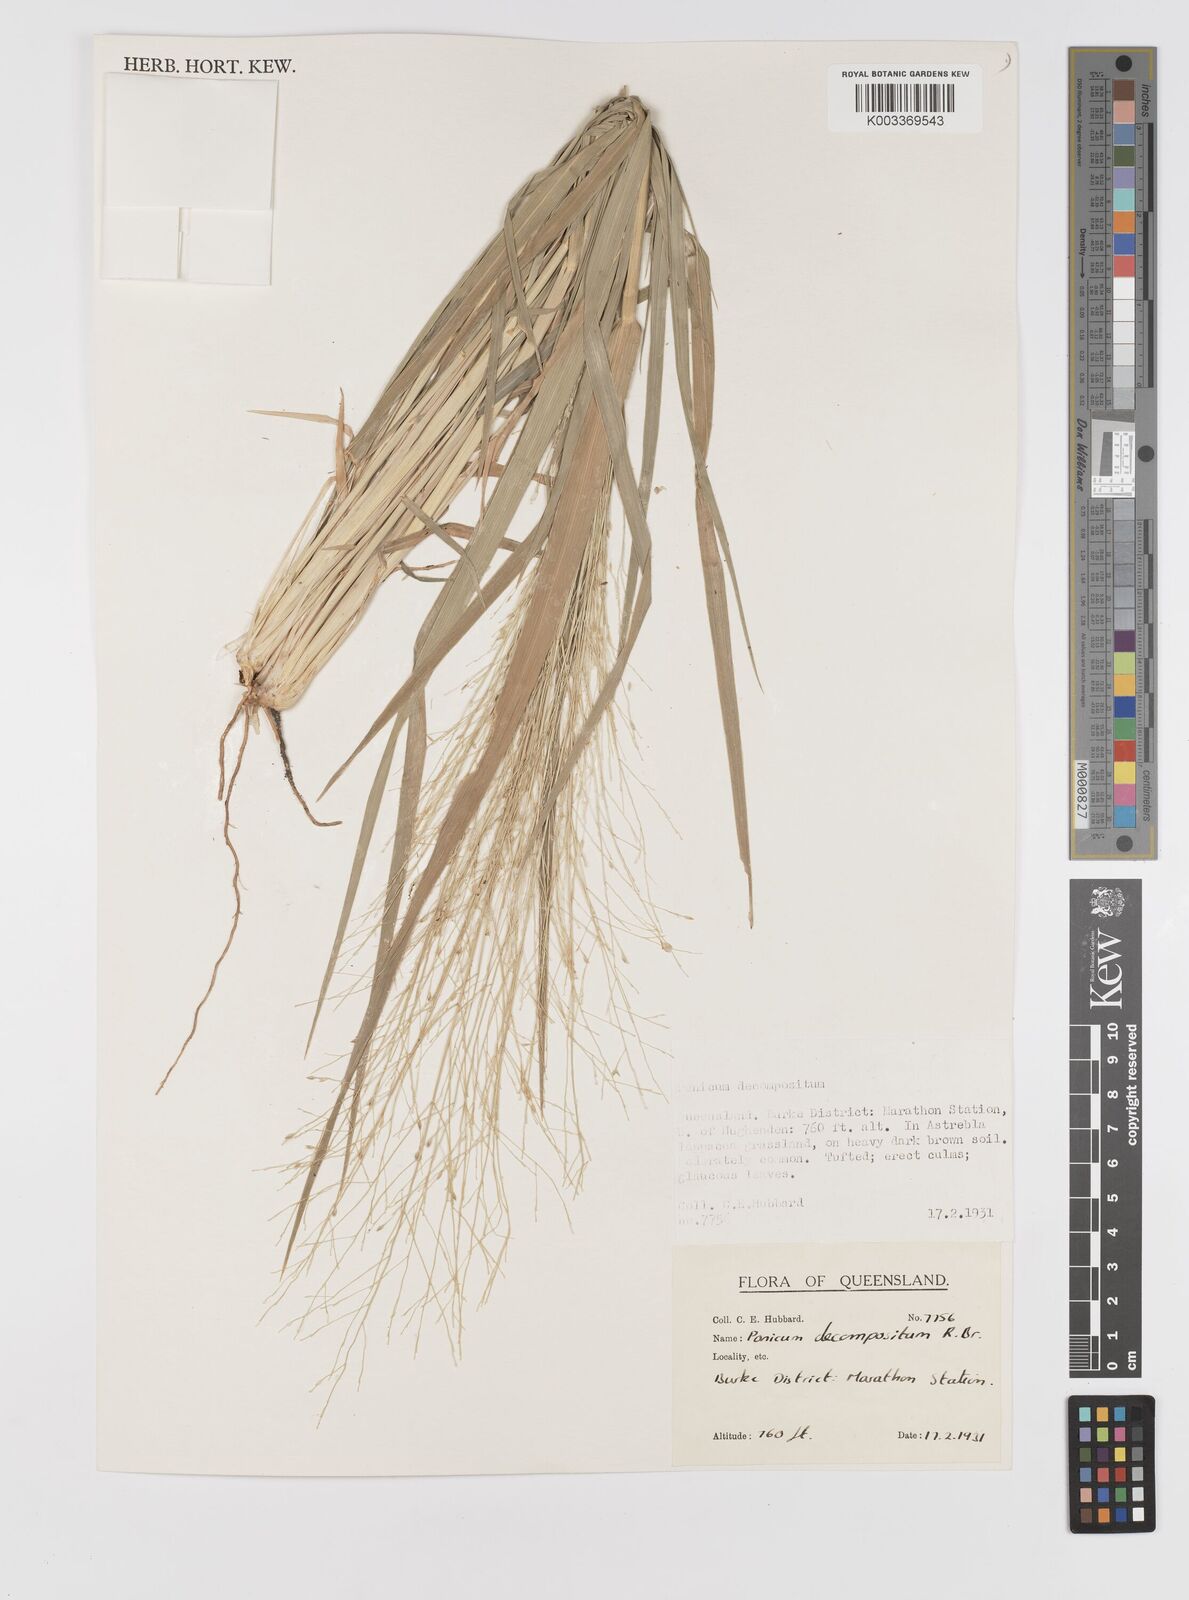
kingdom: Plantae
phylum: Tracheophyta
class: Liliopsida
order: Poales
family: Poaceae
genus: Panicum
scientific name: Panicum decompositum
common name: Australian millet
